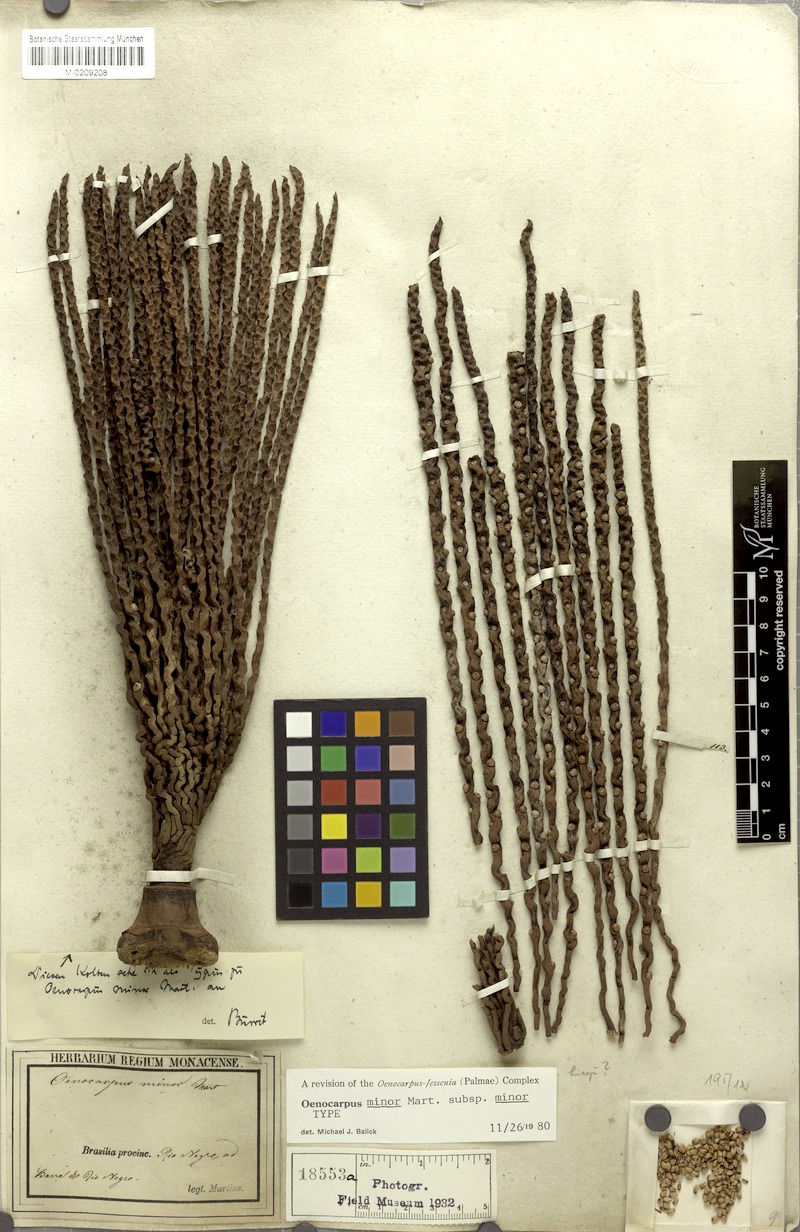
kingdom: Plantae
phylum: Tracheophyta
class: Liliopsida
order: Arecales
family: Arecaceae
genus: Oenocarpus
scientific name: Oenocarpus minor
